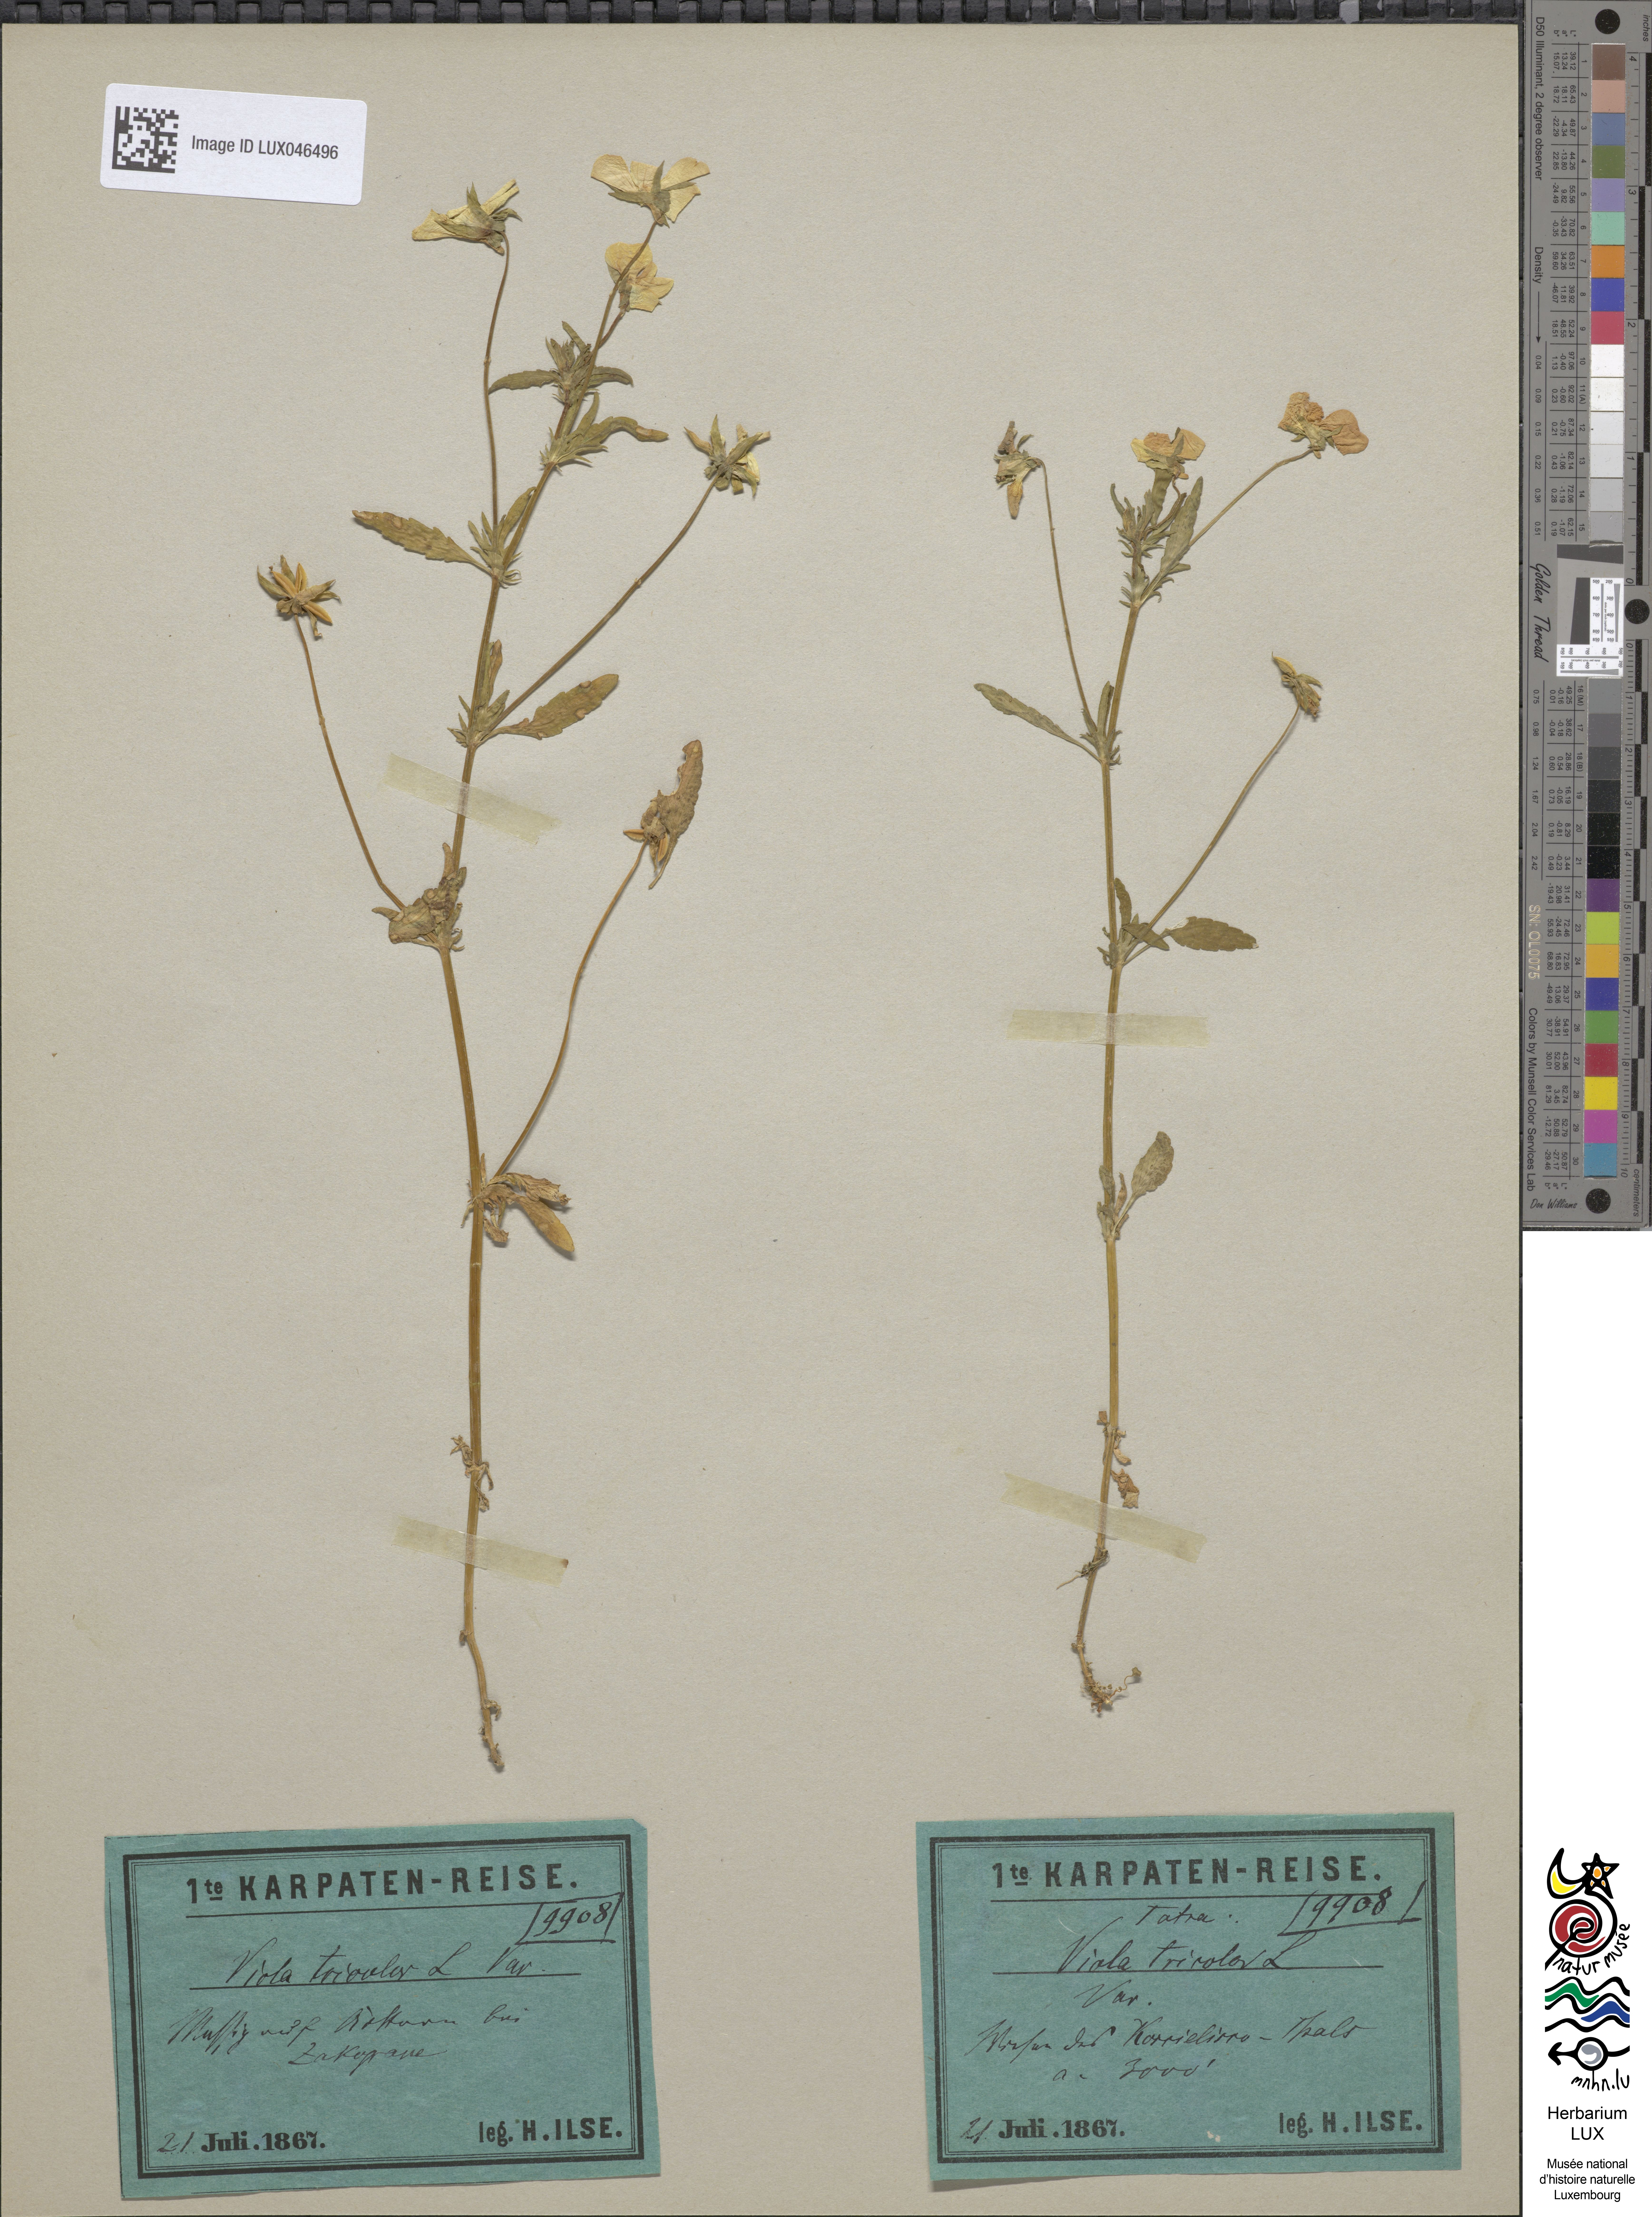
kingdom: Plantae
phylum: Tracheophyta
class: Magnoliopsida
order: Malpighiales
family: Violaceae
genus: Viola
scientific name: Viola tricolor
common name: Pansy
